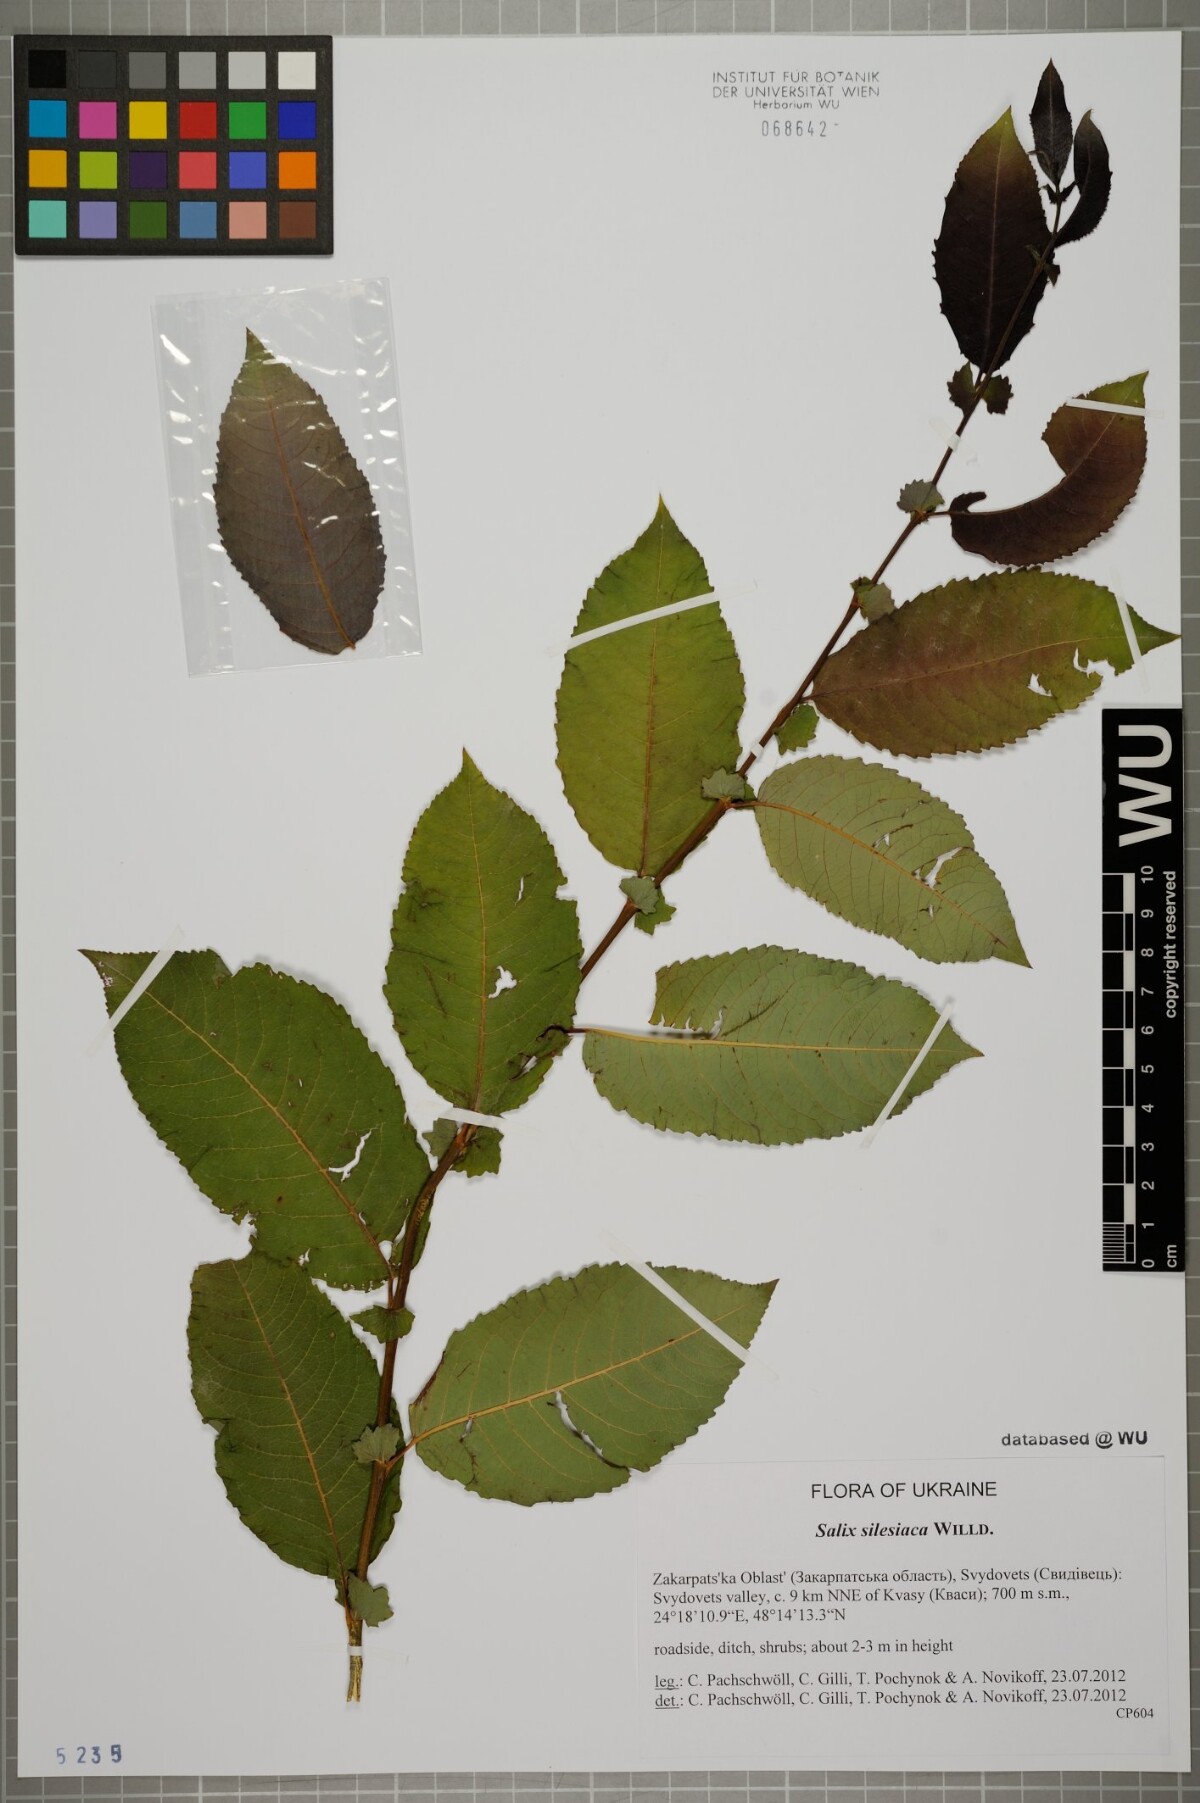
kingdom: Plantae
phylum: Tracheophyta
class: Magnoliopsida
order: Malpighiales
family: Salicaceae
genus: Salix
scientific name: Salix silesiaca
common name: Silesian willow
